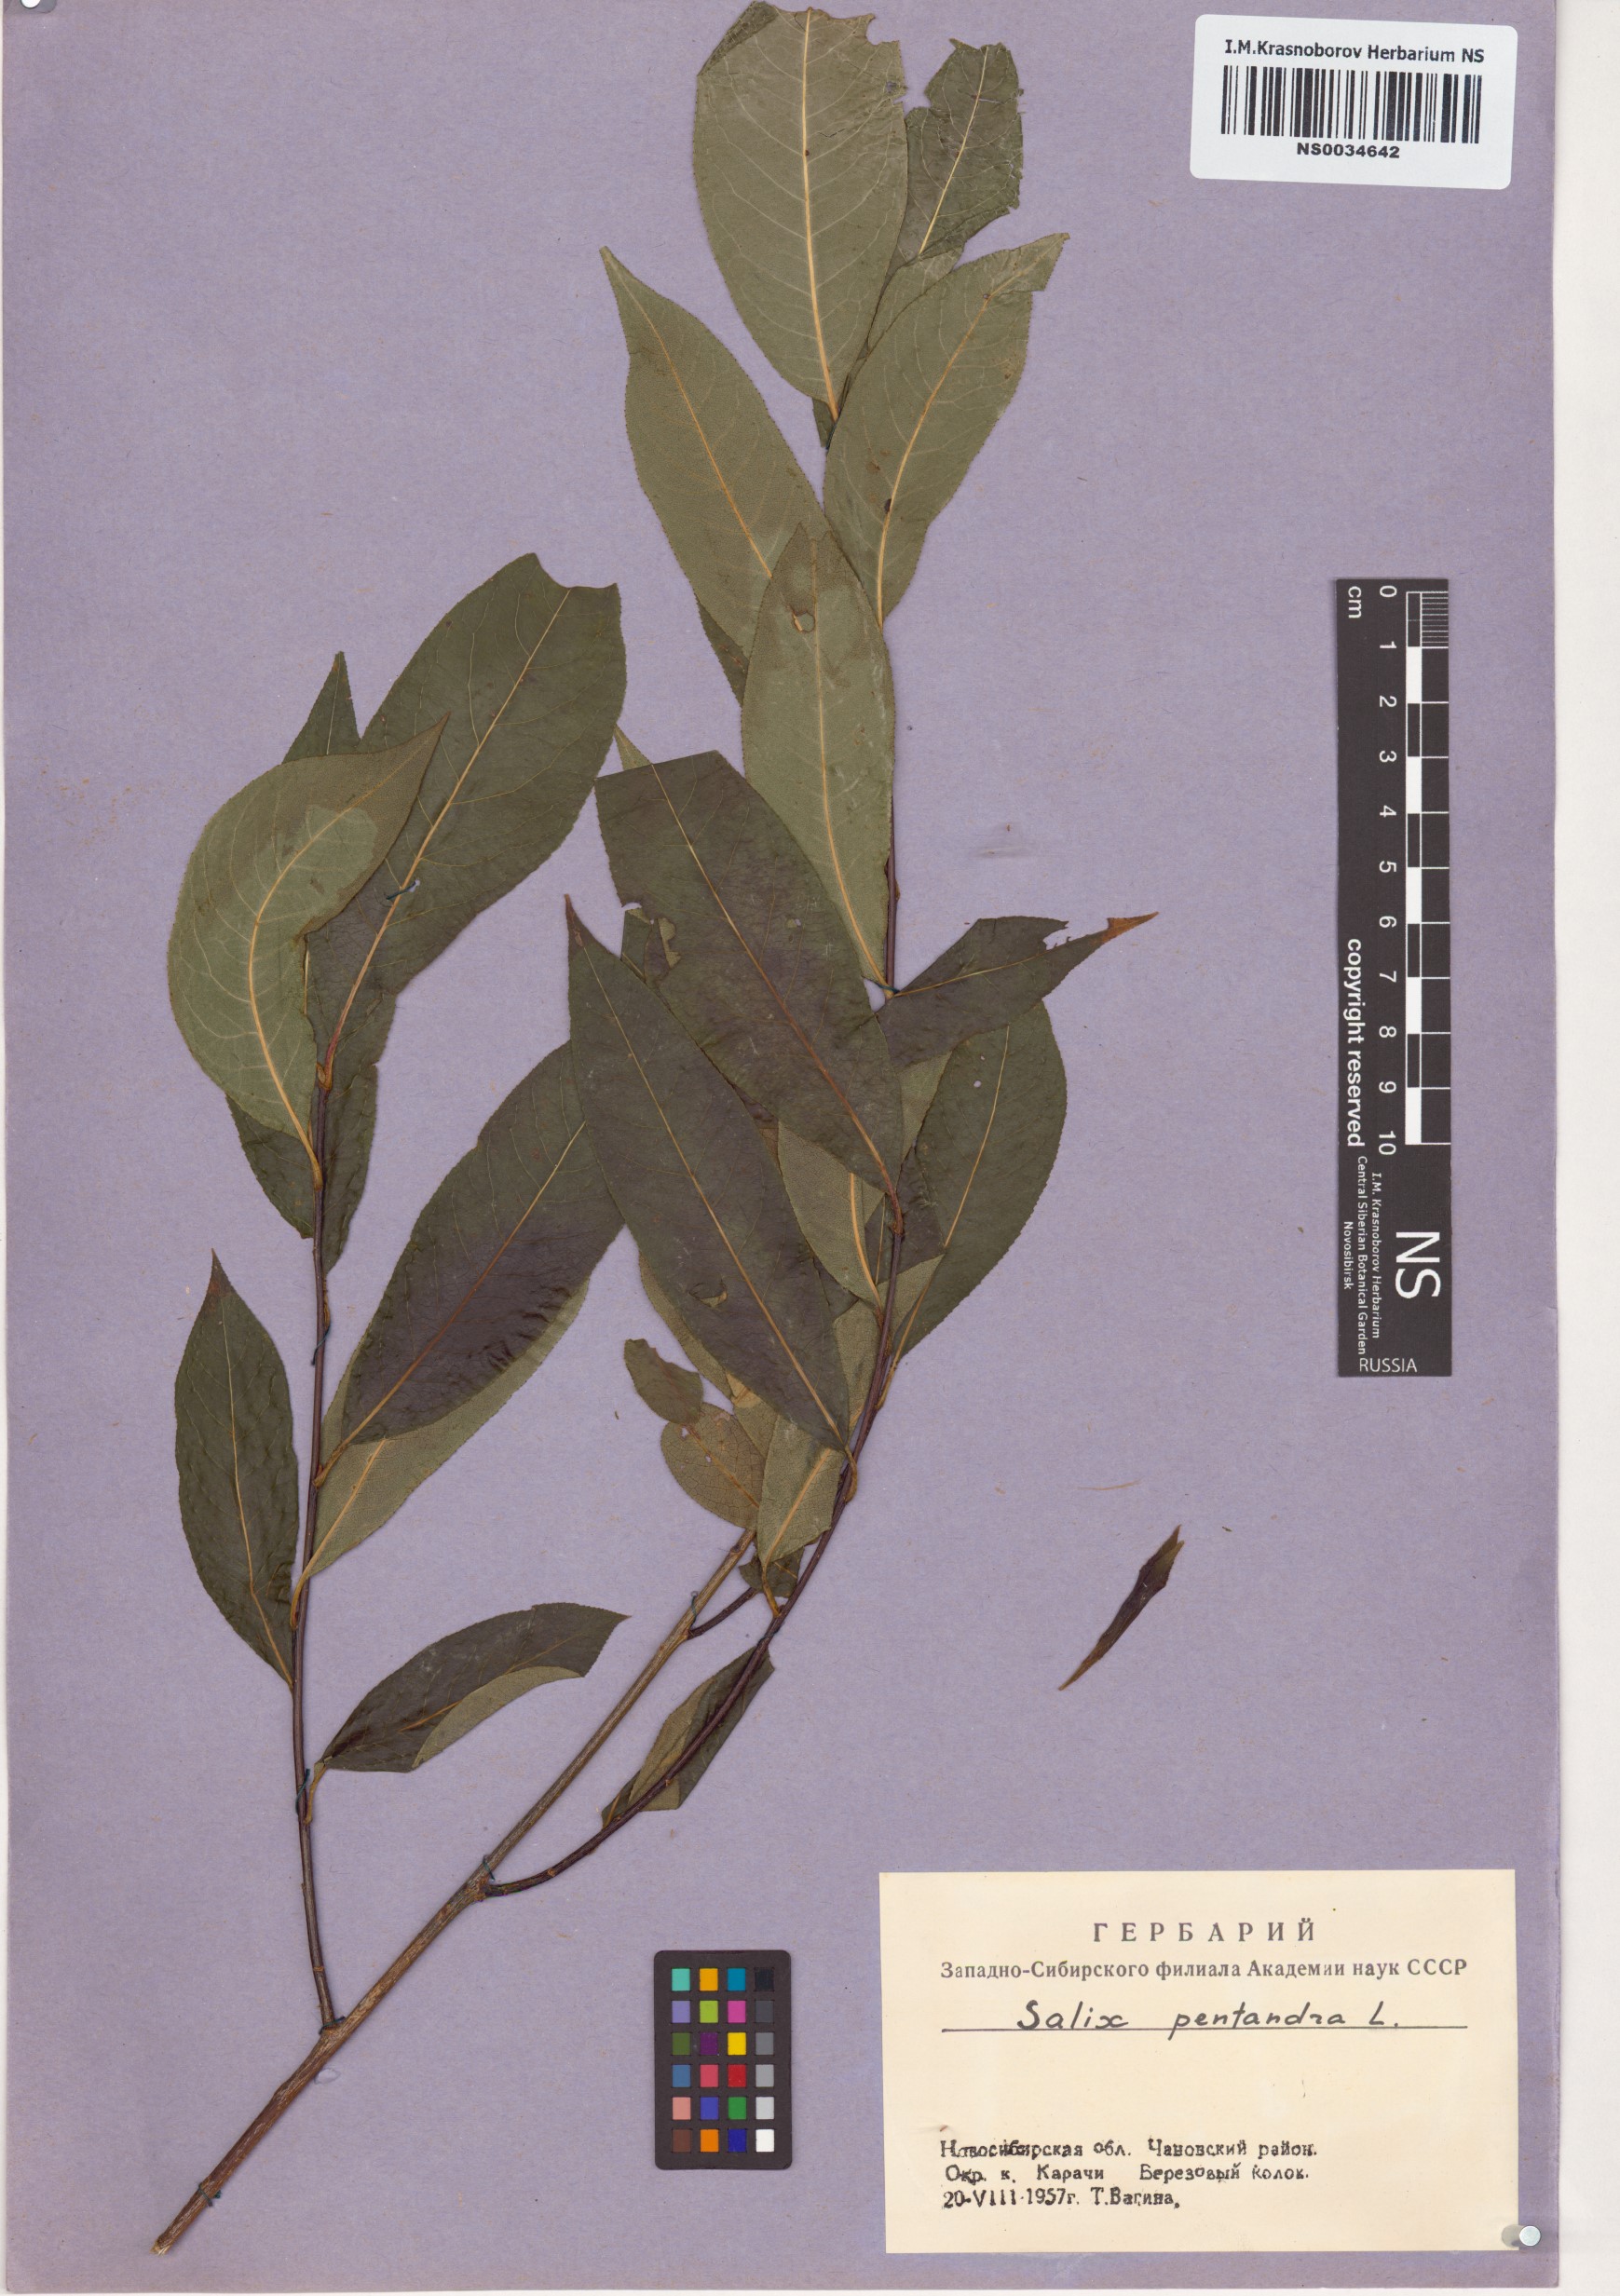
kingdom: Plantae
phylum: Tracheophyta
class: Magnoliopsida
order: Malpighiales
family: Salicaceae
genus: Salix
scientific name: Salix pentandra
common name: Bay willow
